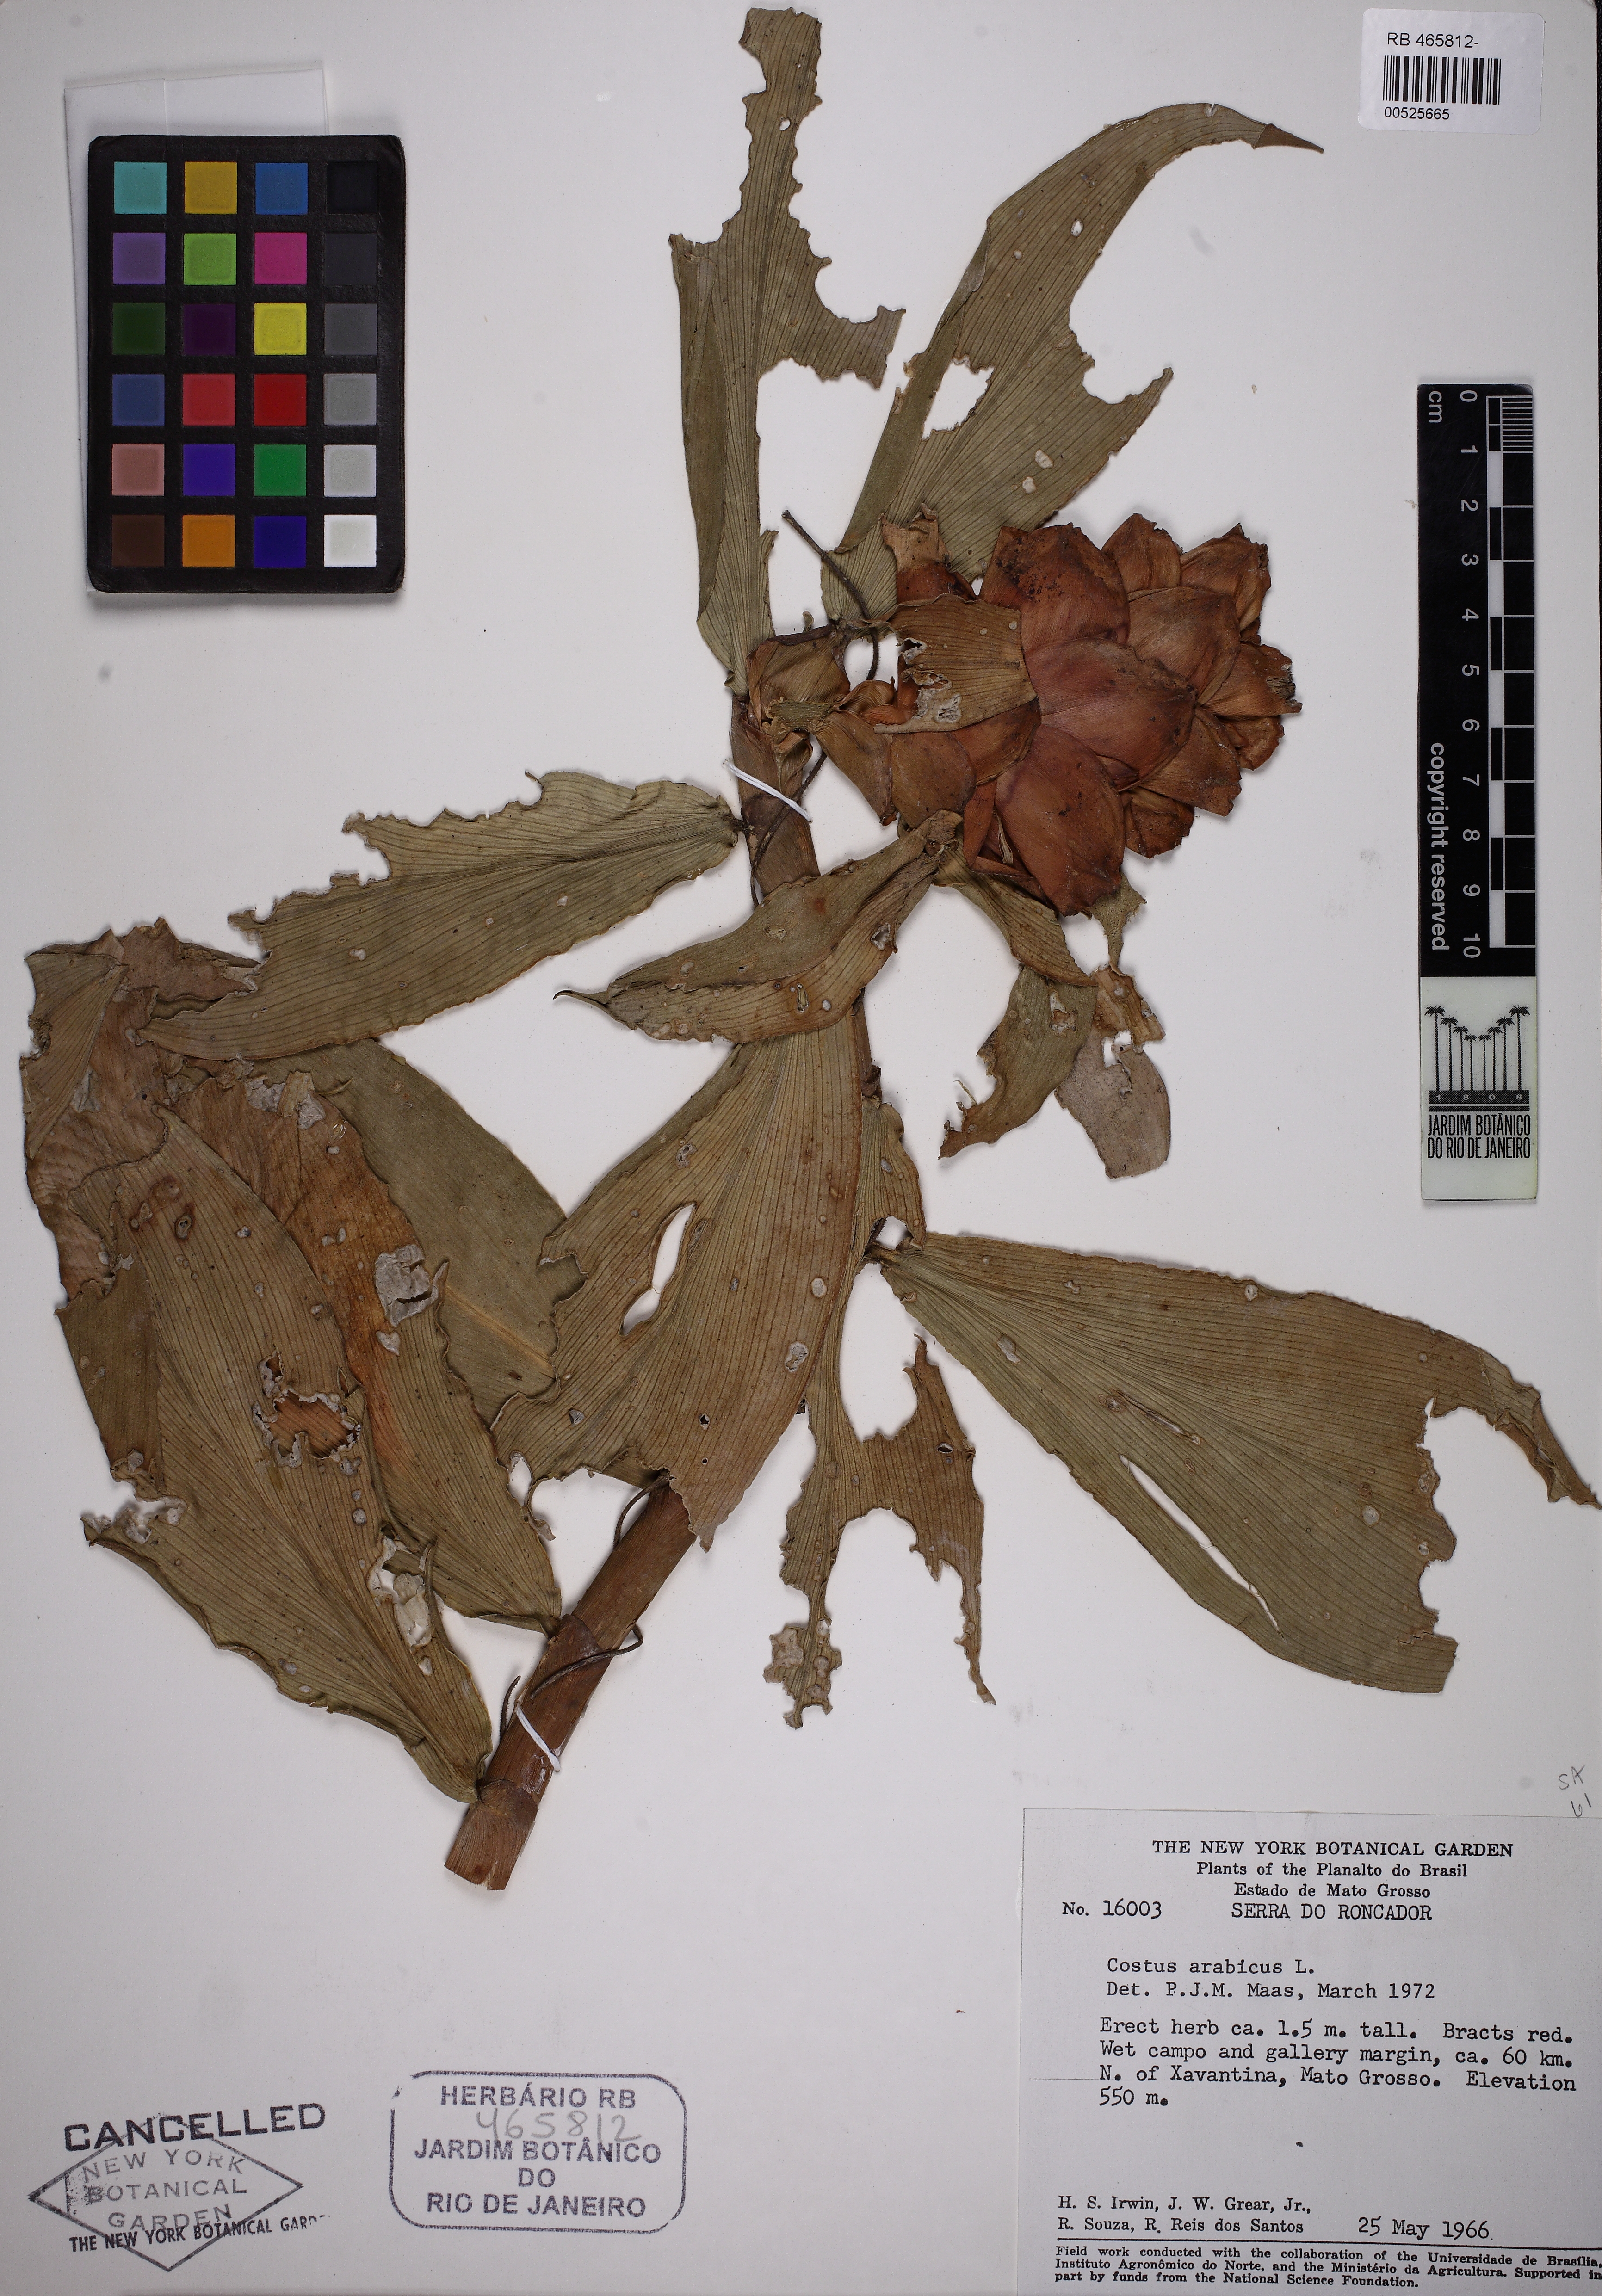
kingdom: Plantae
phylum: Tracheophyta
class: Liliopsida
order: Zingiberales
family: Costaceae
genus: Costus
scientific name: Costus arabicus
